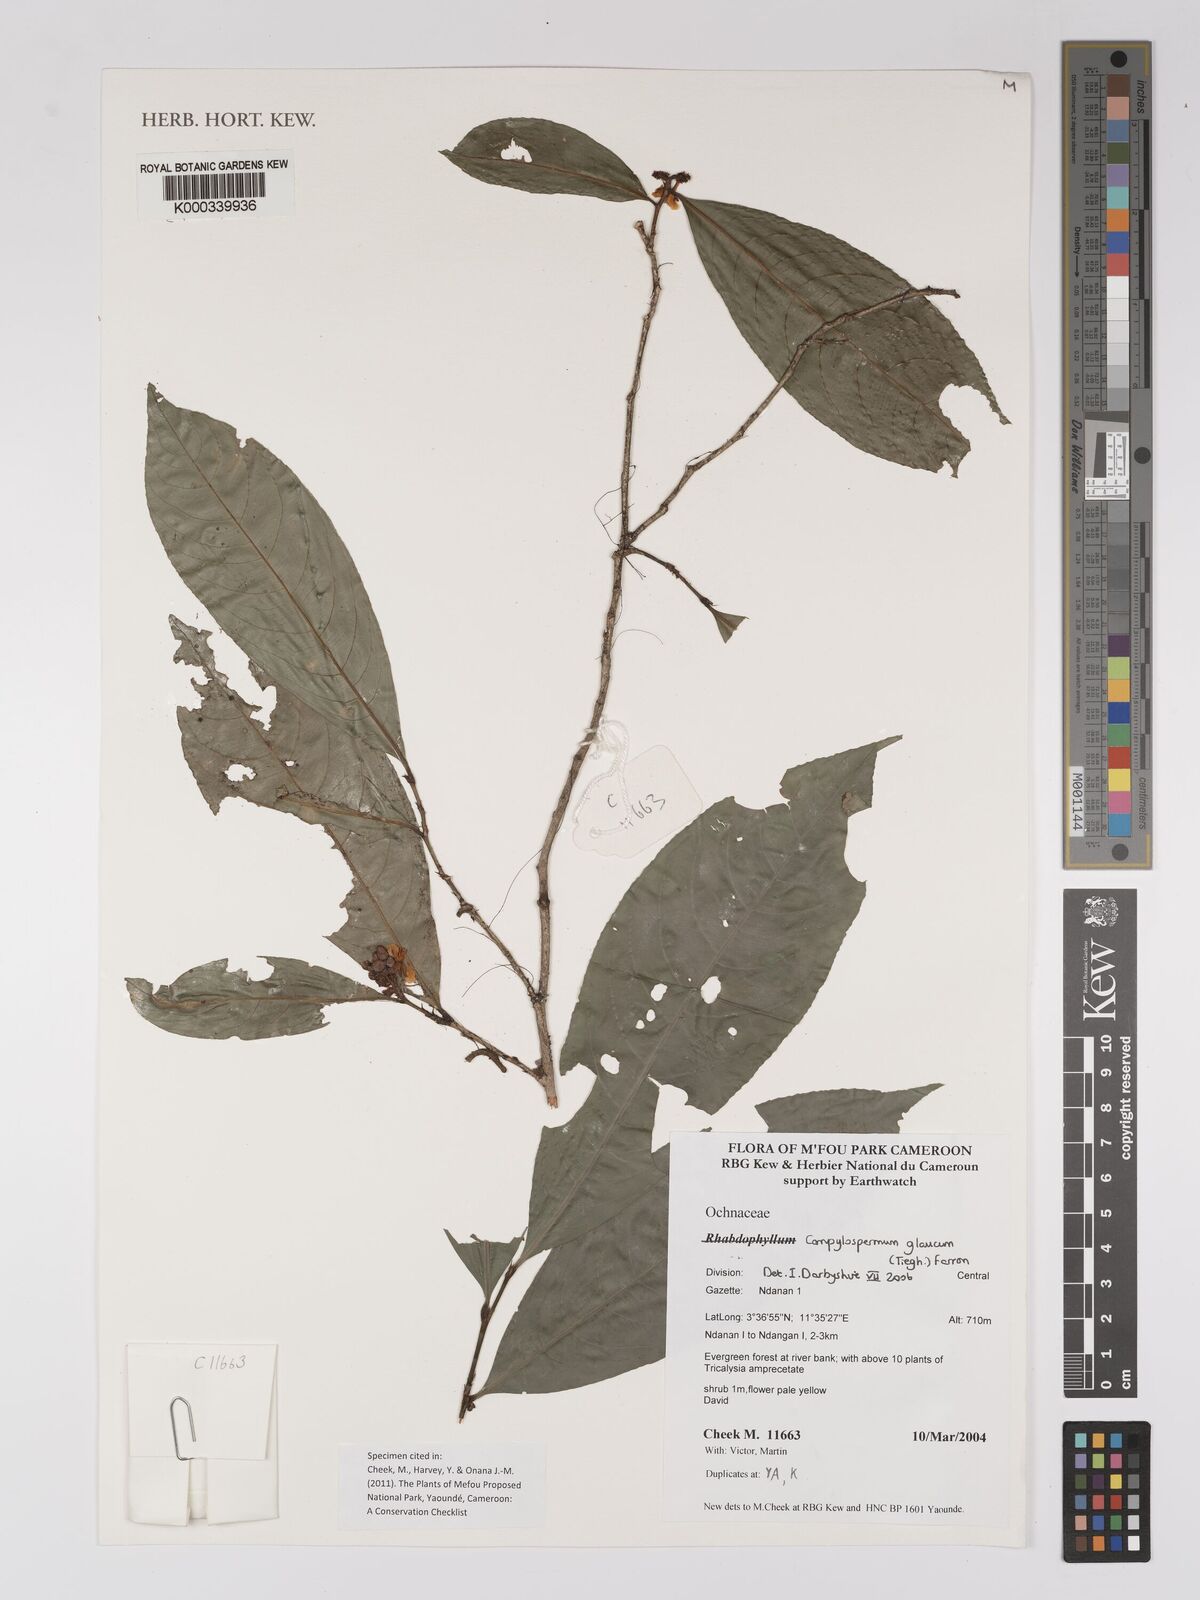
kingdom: Plantae
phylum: Tracheophyta
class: Magnoliopsida
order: Malpighiales
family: Ochnaceae
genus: Campylospermum
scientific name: Campylospermum glaucum
